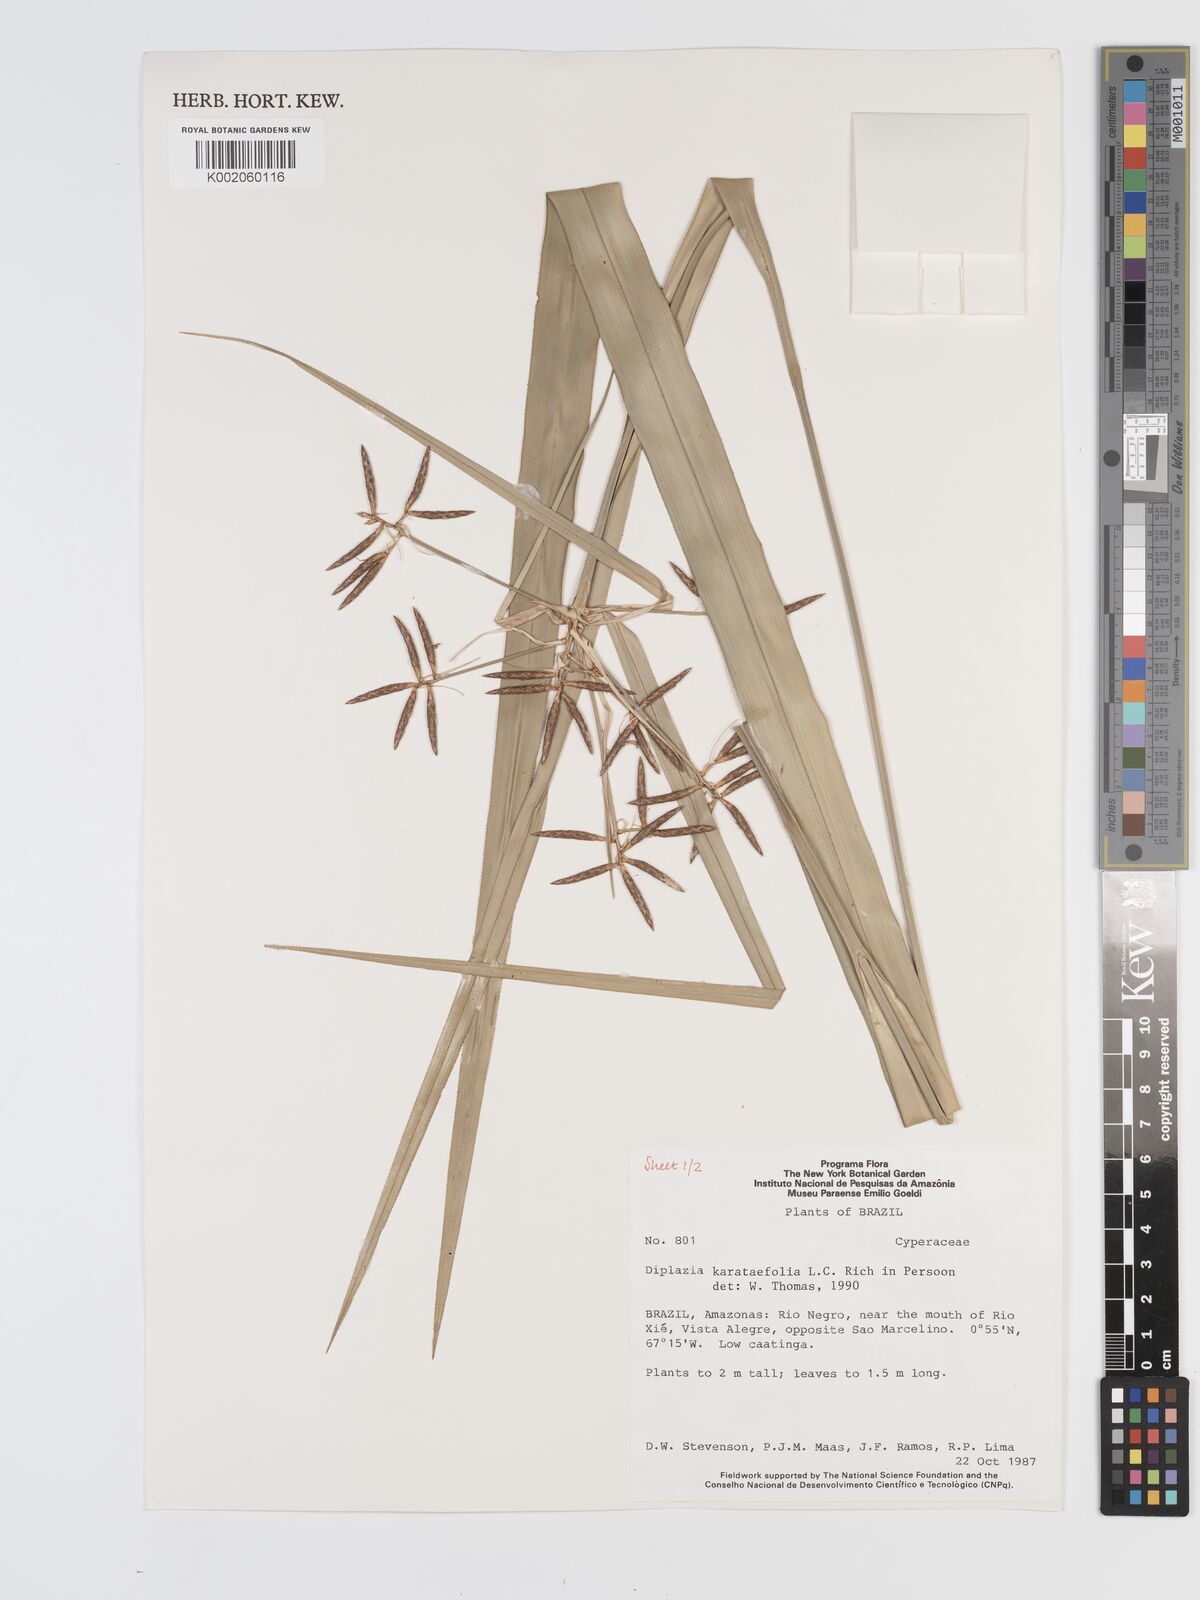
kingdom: Plantae
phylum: Tracheophyta
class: Liliopsida
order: Poales
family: Cyperaceae
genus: Diplasia
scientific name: Diplasia karatifolia
